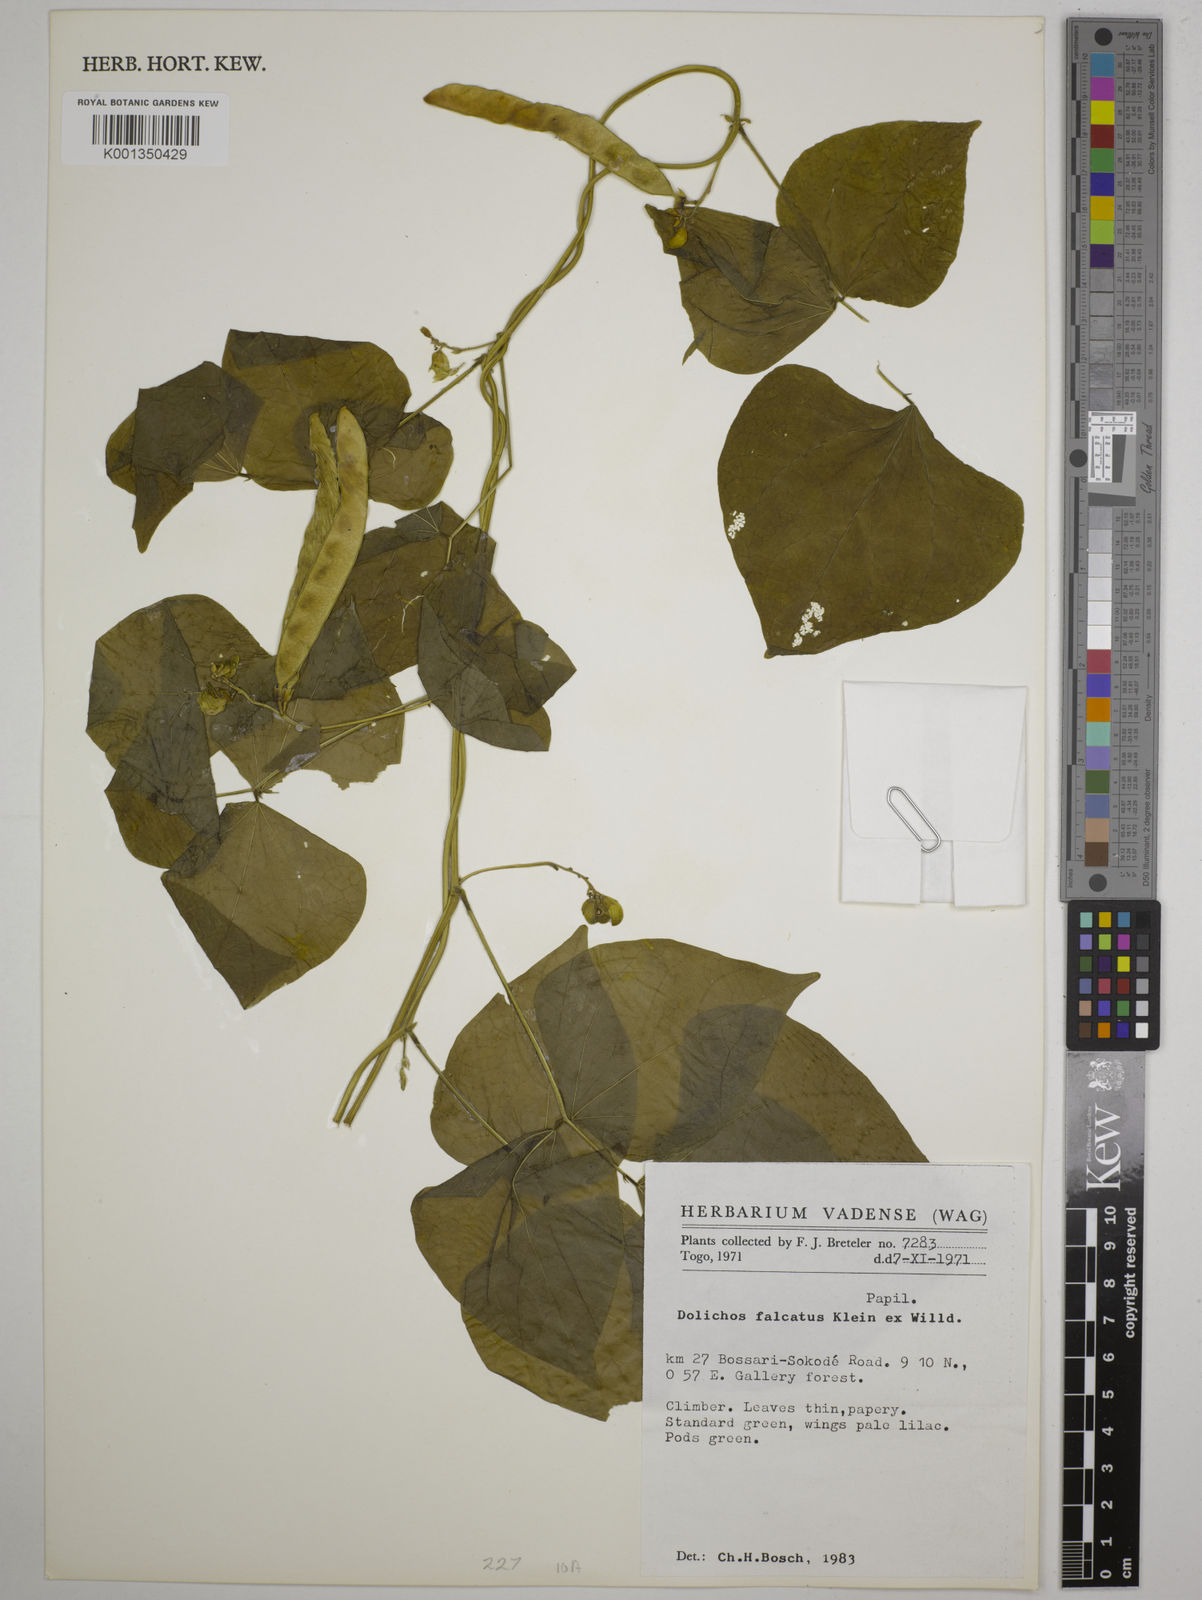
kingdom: Plantae
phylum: Tracheophyta
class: Magnoliopsida
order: Fabales
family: Fabaceae
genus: Dolichos
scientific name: Dolichos trilobus
